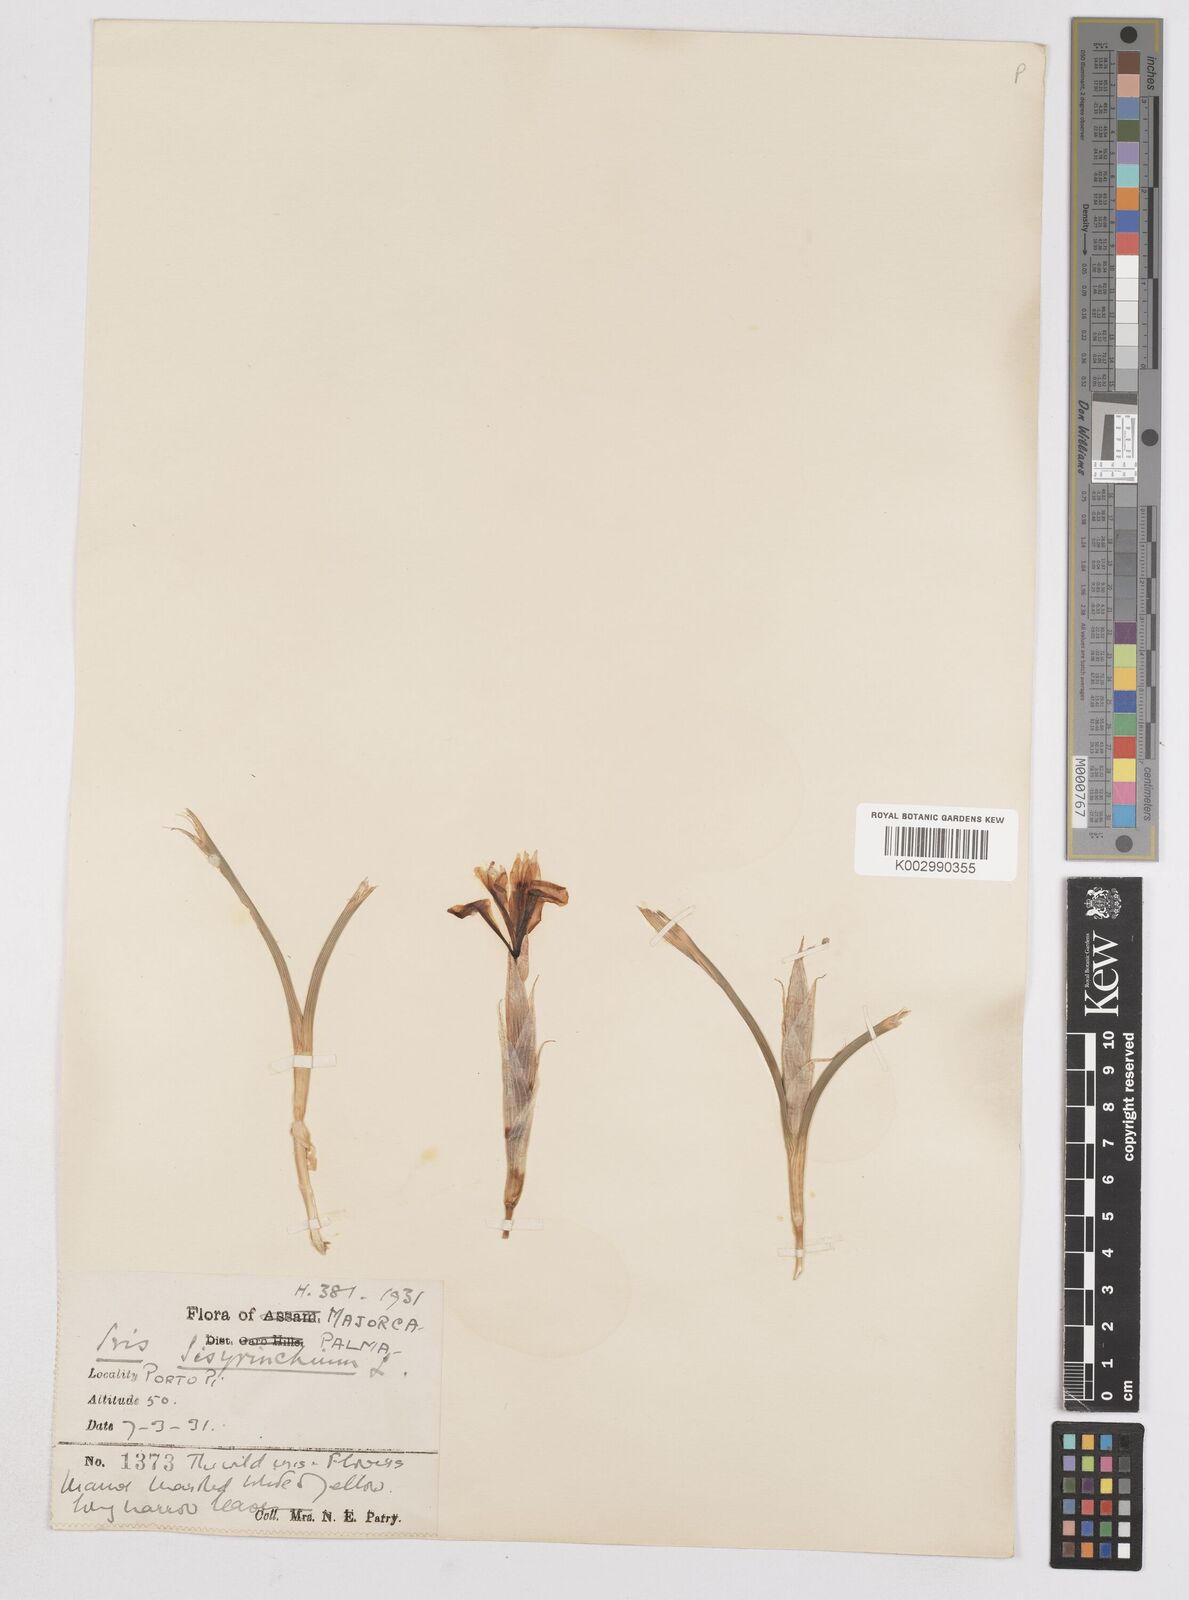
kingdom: Plantae
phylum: Tracheophyta
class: Liliopsida
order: Asparagales
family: Iridaceae
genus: Moraea
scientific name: Moraea sisyrinchium
